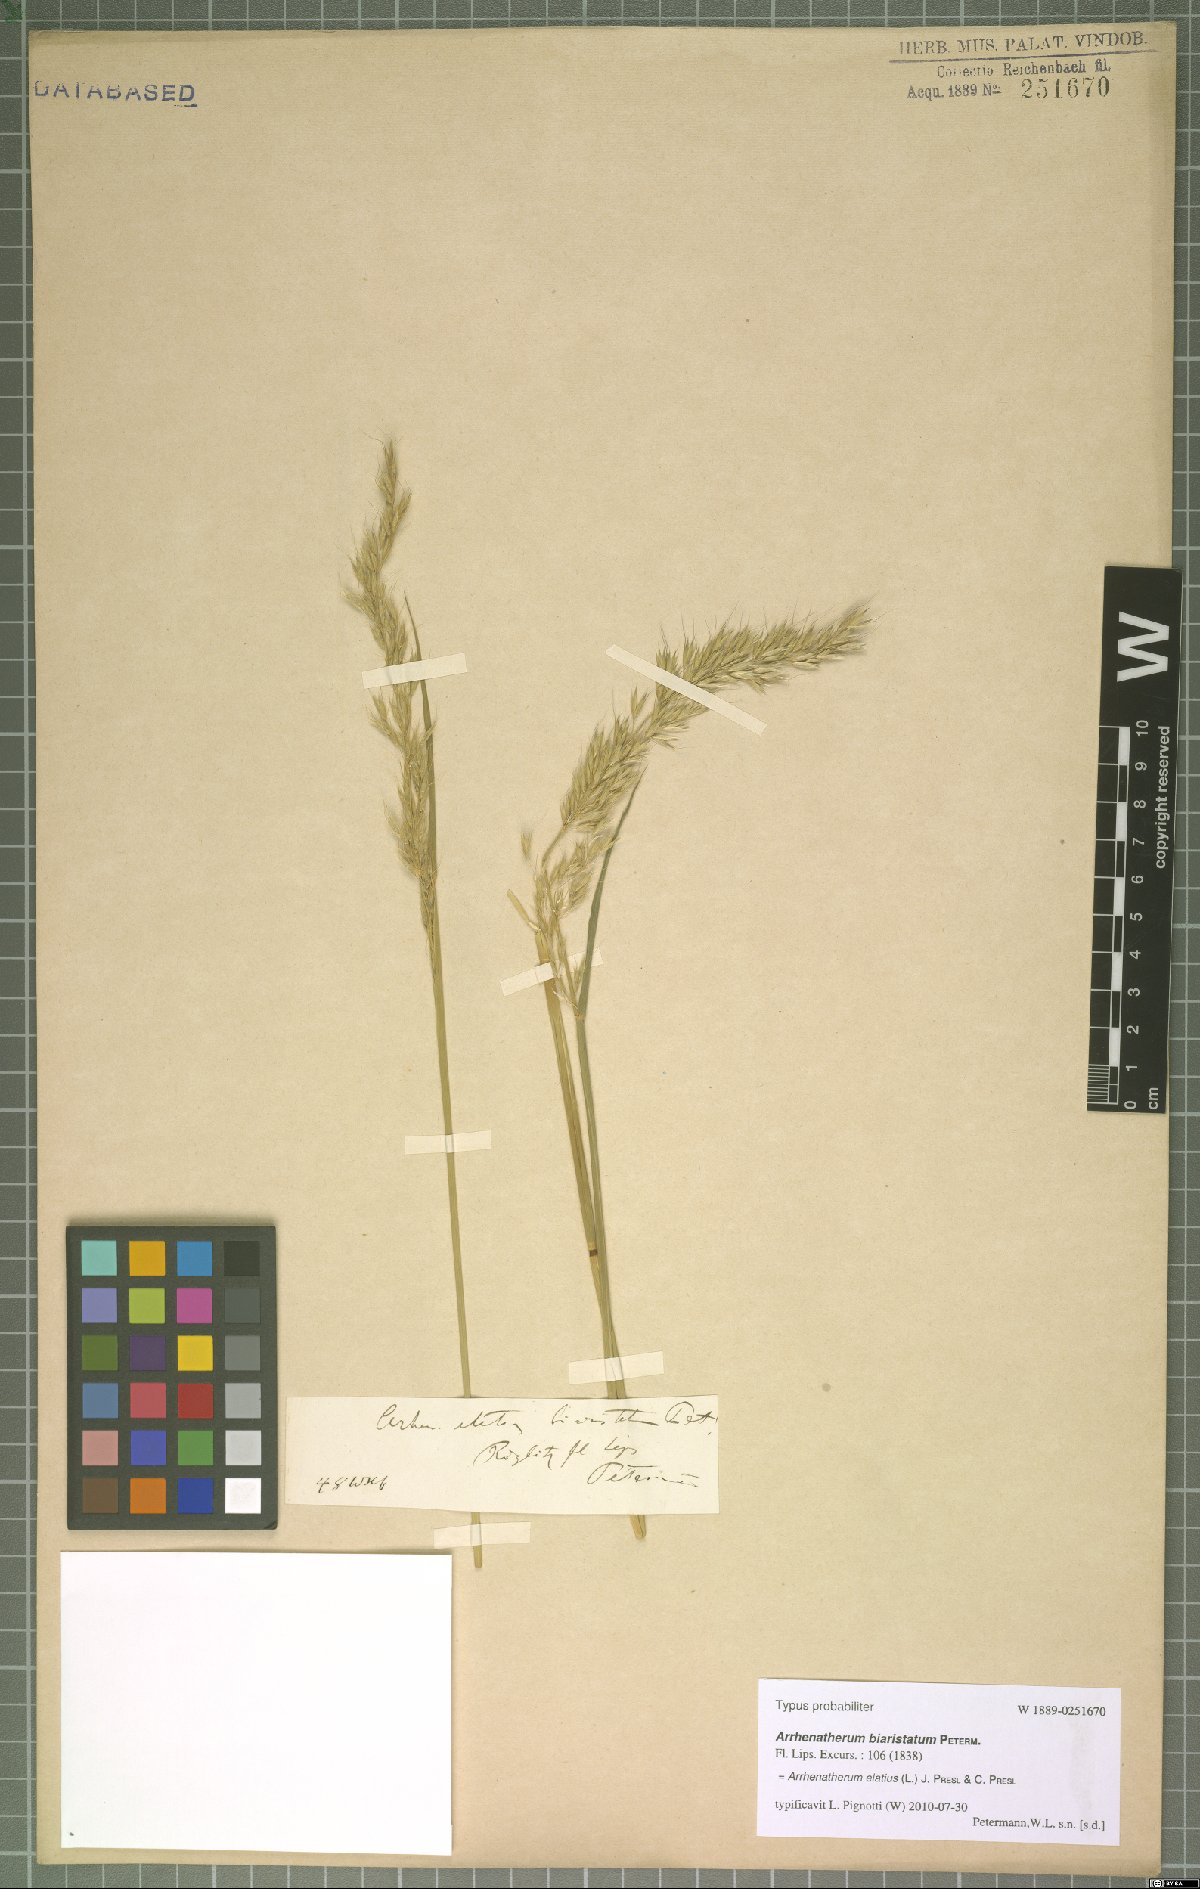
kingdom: Plantae
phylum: Tracheophyta
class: Liliopsida
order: Poales
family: Poaceae
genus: Arrhenatherum
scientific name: Arrhenatherum elatius
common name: Tall oatgrass
